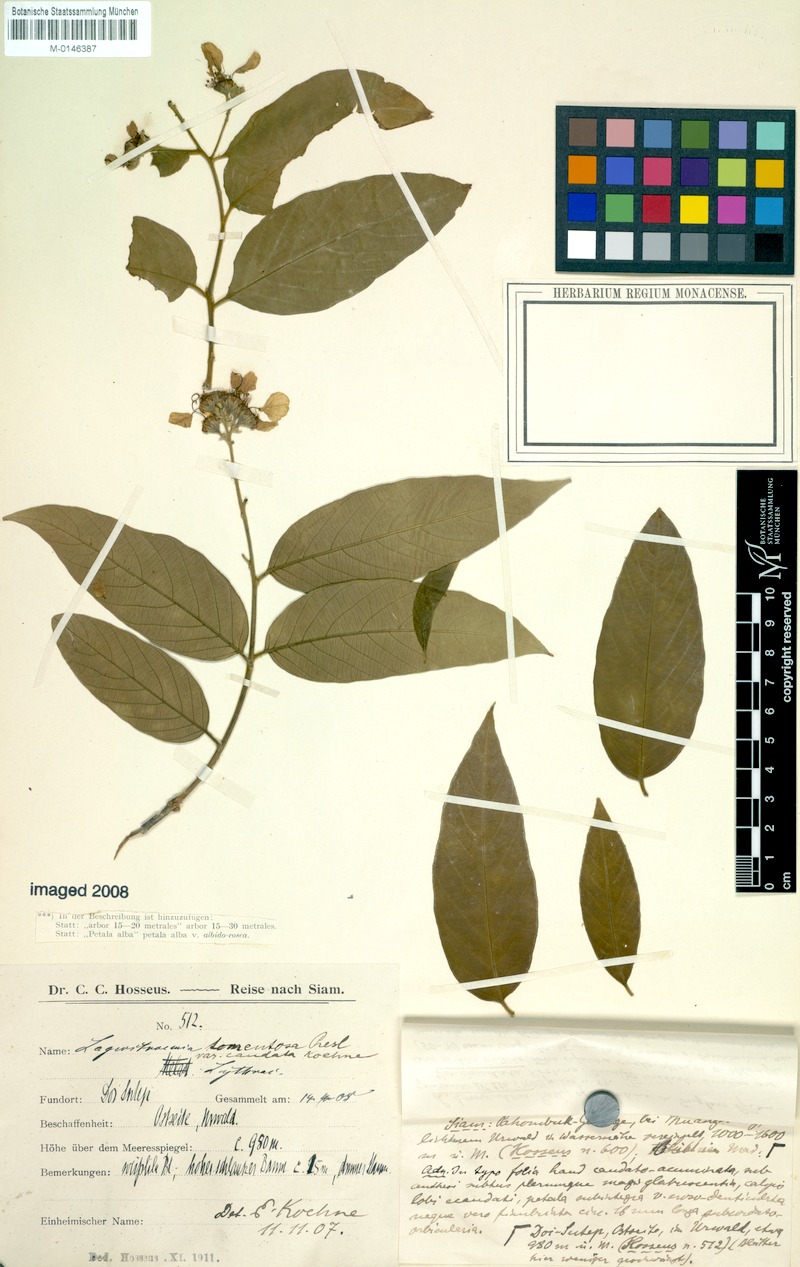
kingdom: Plantae
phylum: Tracheophyta
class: Magnoliopsida
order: Myrtales
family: Lythraceae
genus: Lagerstroemia
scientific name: Lagerstroemia tomentosa
